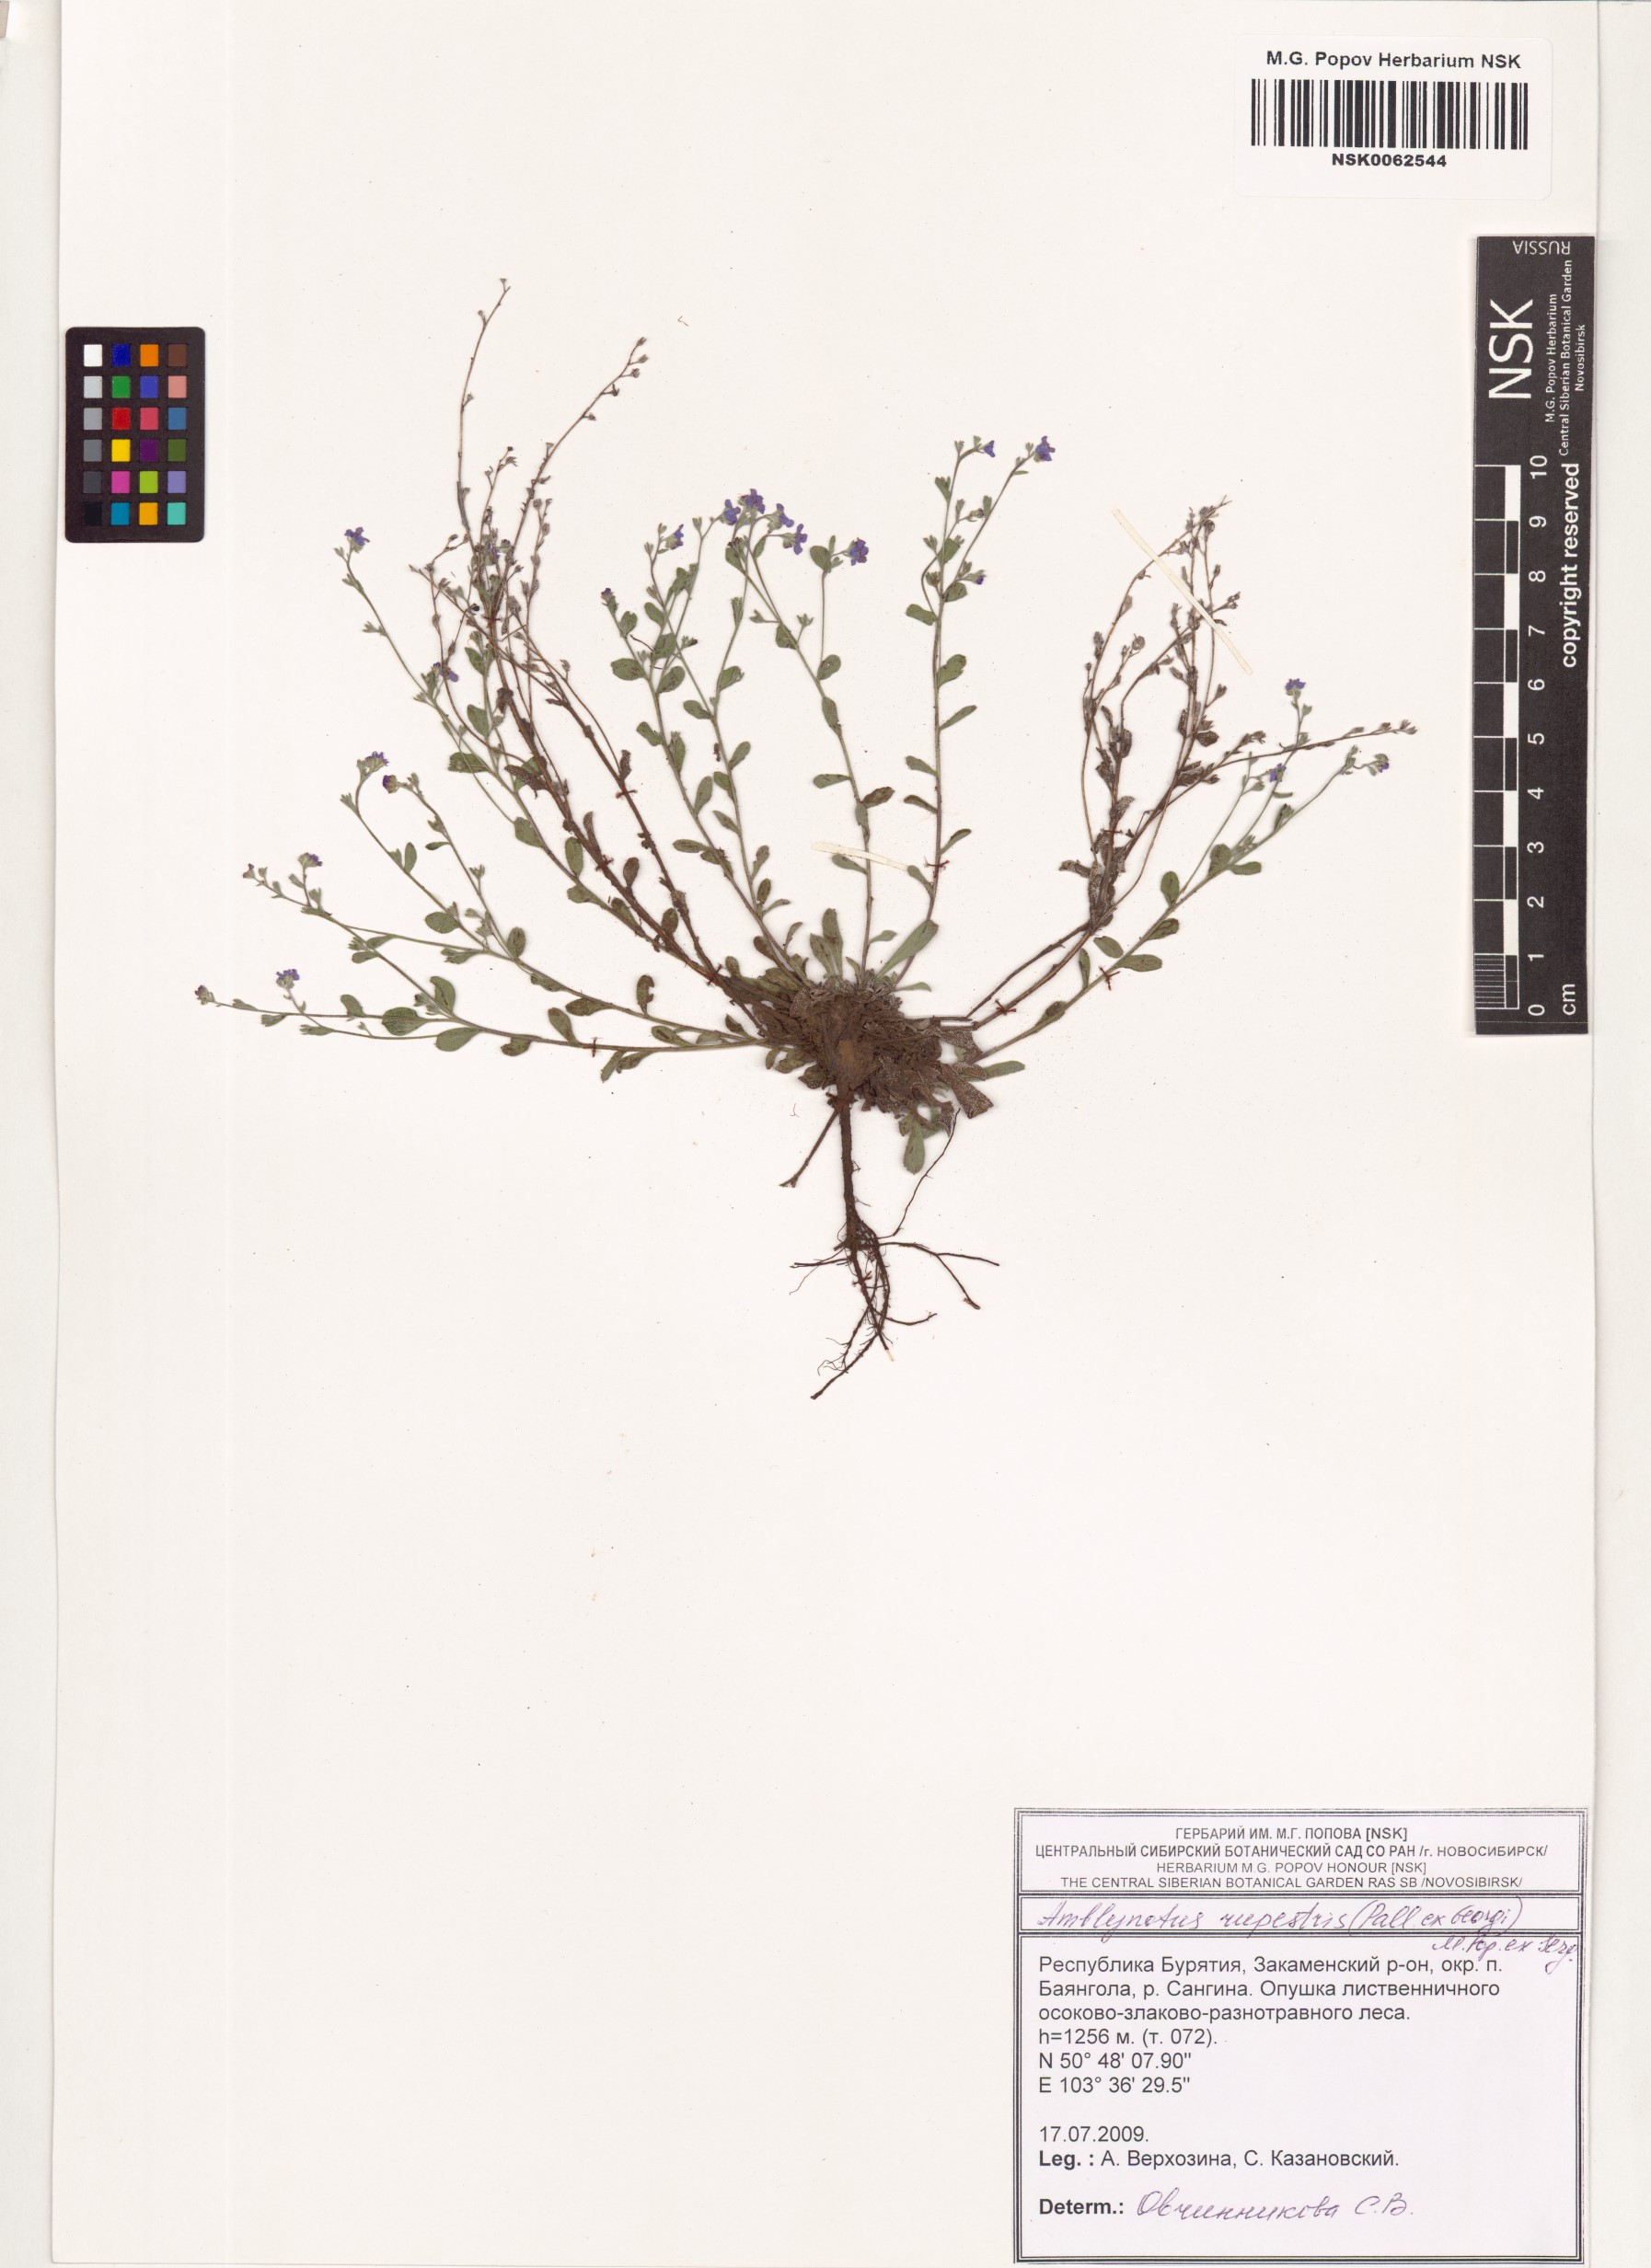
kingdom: Plantae
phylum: Tracheophyta
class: Magnoliopsida
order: Boraginales
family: Boraginaceae
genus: Eritrichium
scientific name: Eritrichium rupestre
